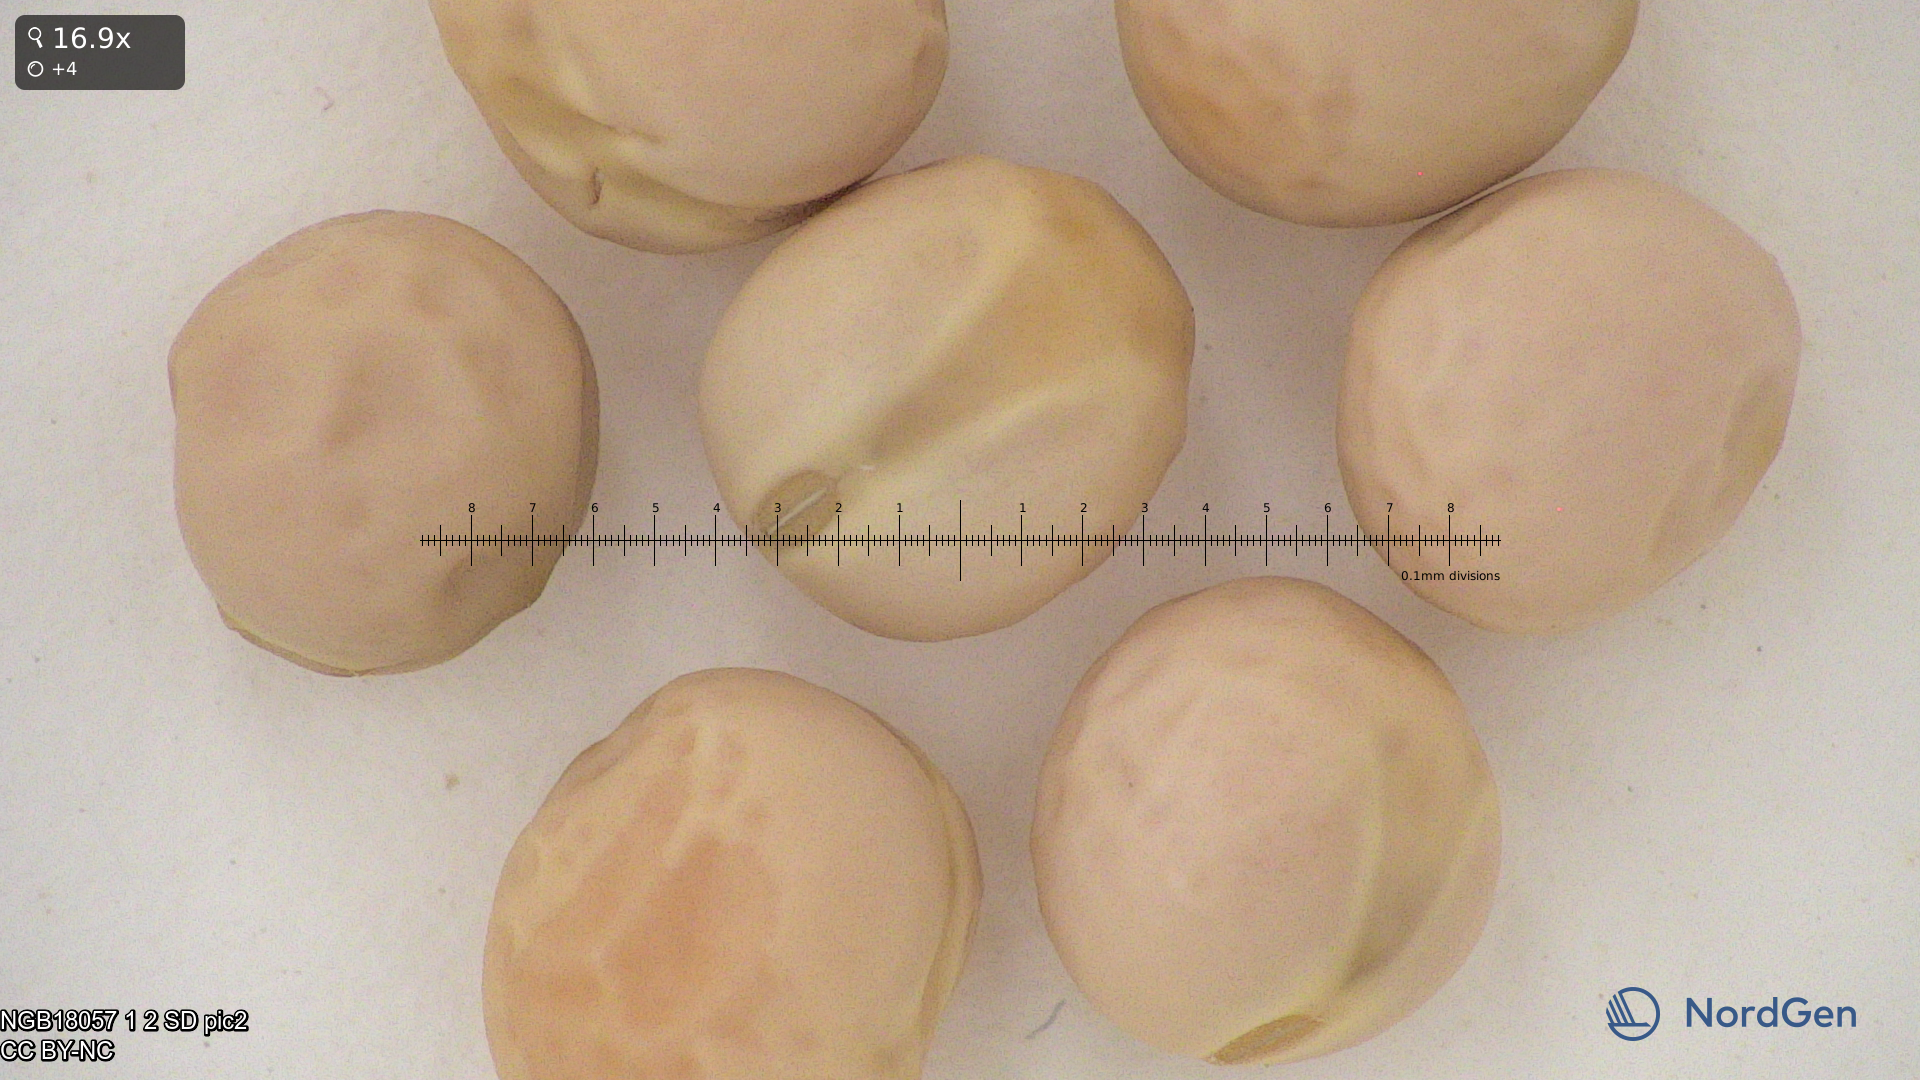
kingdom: Plantae
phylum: Tracheophyta
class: Magnoliopsida
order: Fabales
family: Fabaceae
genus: Lathyrus
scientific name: Lathyrus oleraceus
